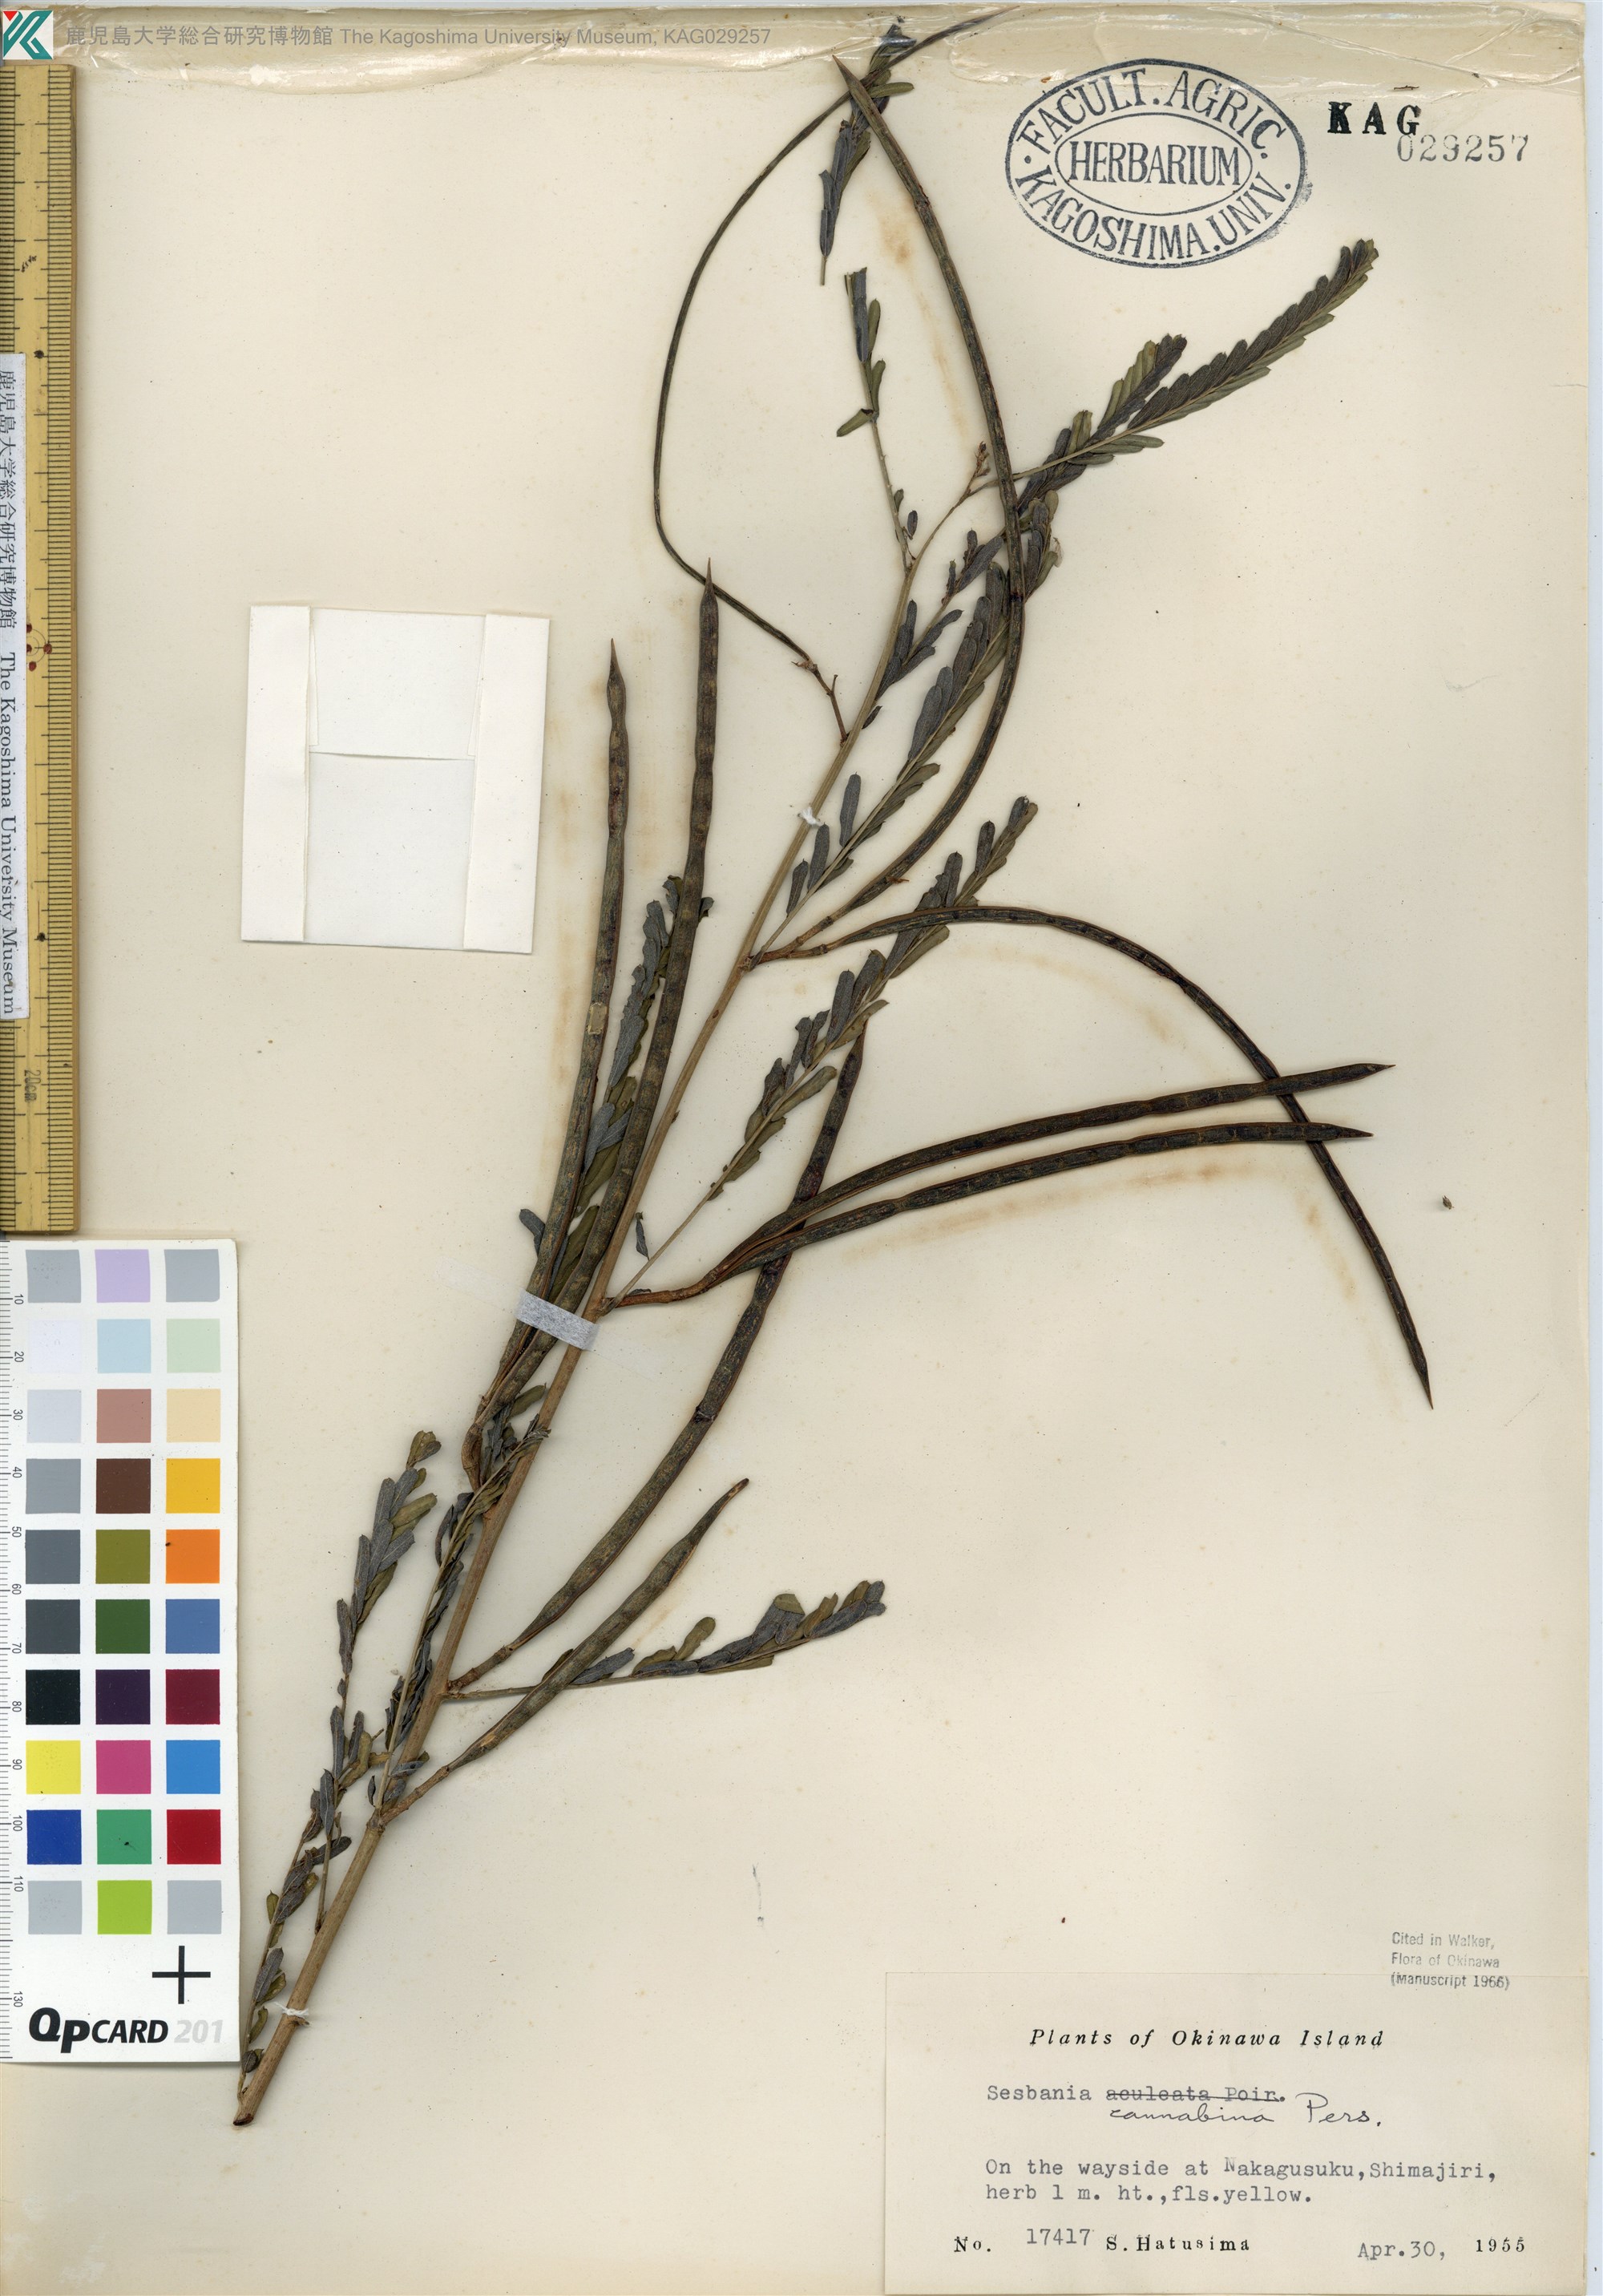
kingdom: Plantae
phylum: Tracheophyta
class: Magnoliopsida
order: Fabales
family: Fabaceae
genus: Sesbania
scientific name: Sesbania cannabina
